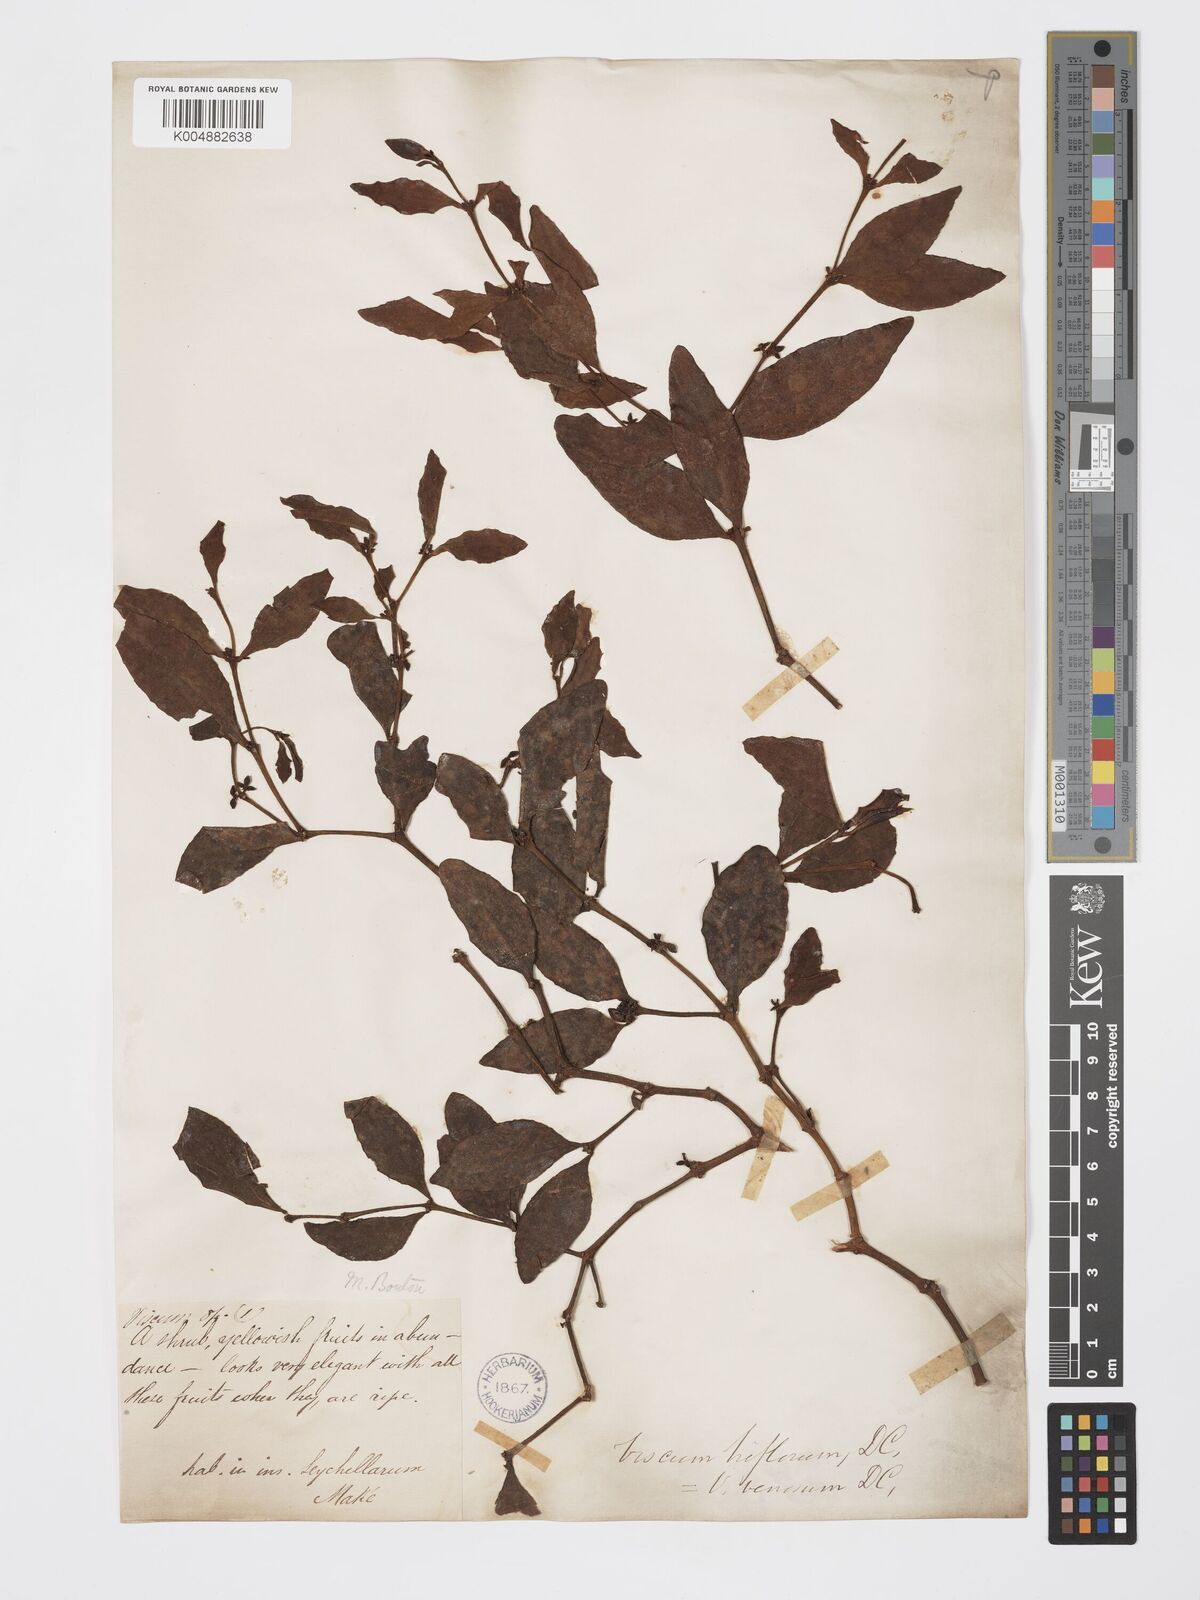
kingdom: Plantae
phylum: Tracheophyta
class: Magnoliopsida
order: Santalales
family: Viscaceae
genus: Viscum
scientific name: Viscum triflorum
